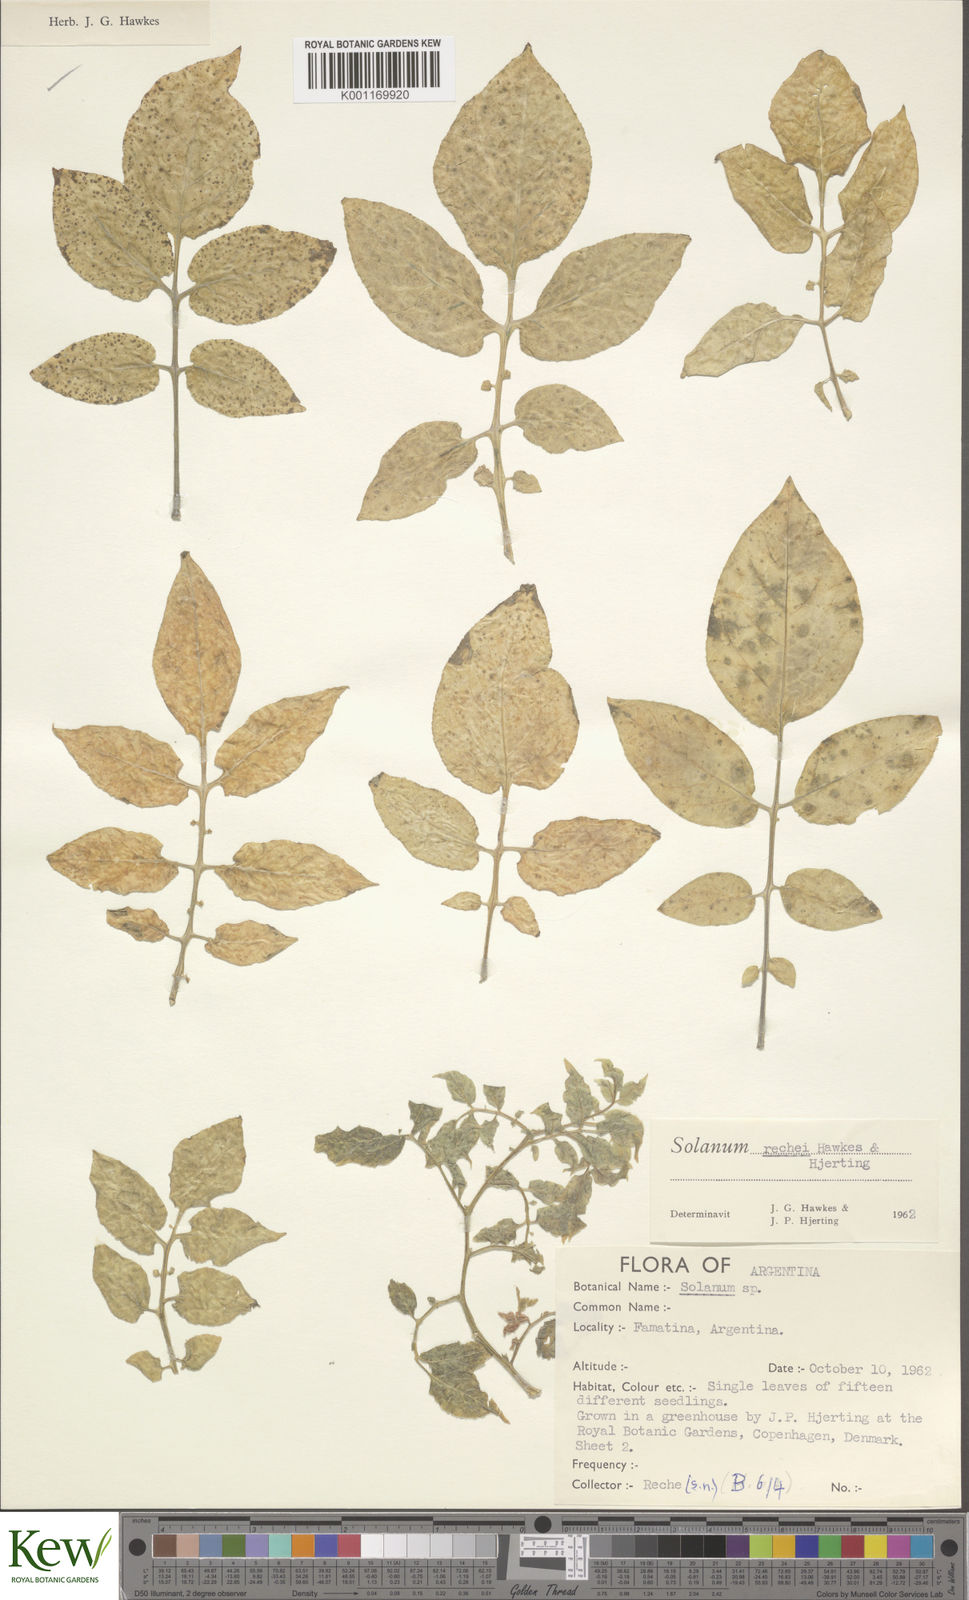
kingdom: Plantae
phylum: Tracheophyta
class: Magnoliopsida
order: Solanales
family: Solanaceae
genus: Solanum
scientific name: Solanum rechei
